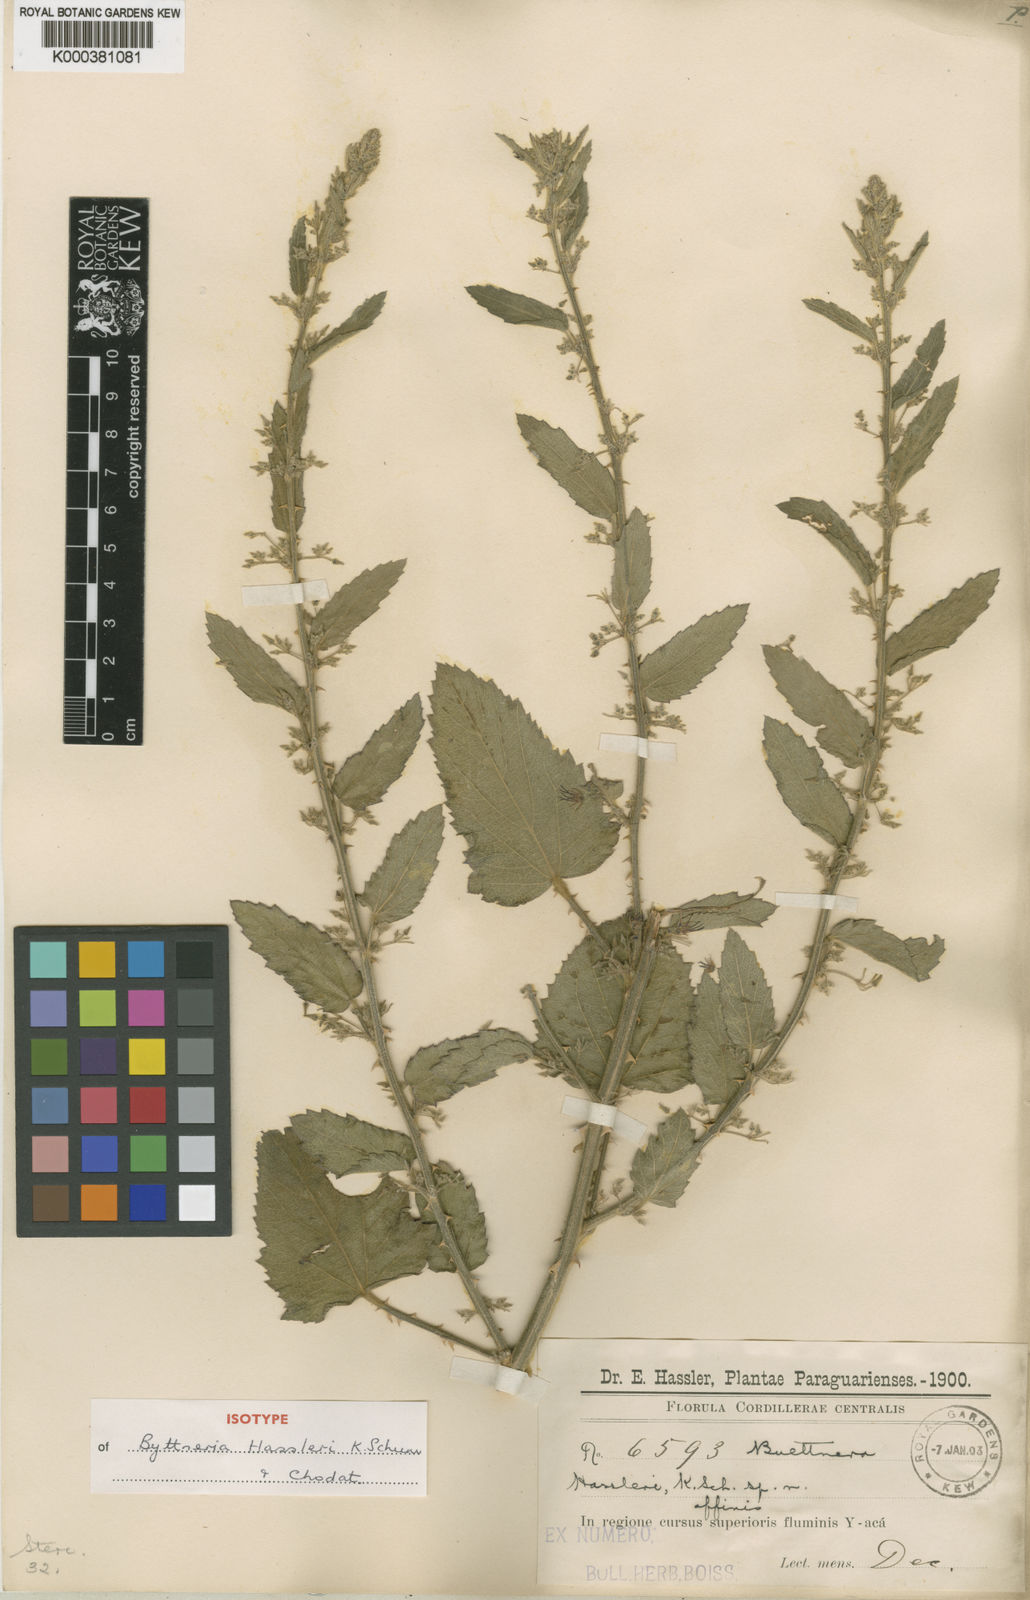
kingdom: Plantae
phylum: Tracheophyta
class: Magnoliopsida
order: Malvales
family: Malvaceae
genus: Byttneria
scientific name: Byttneria dentata
